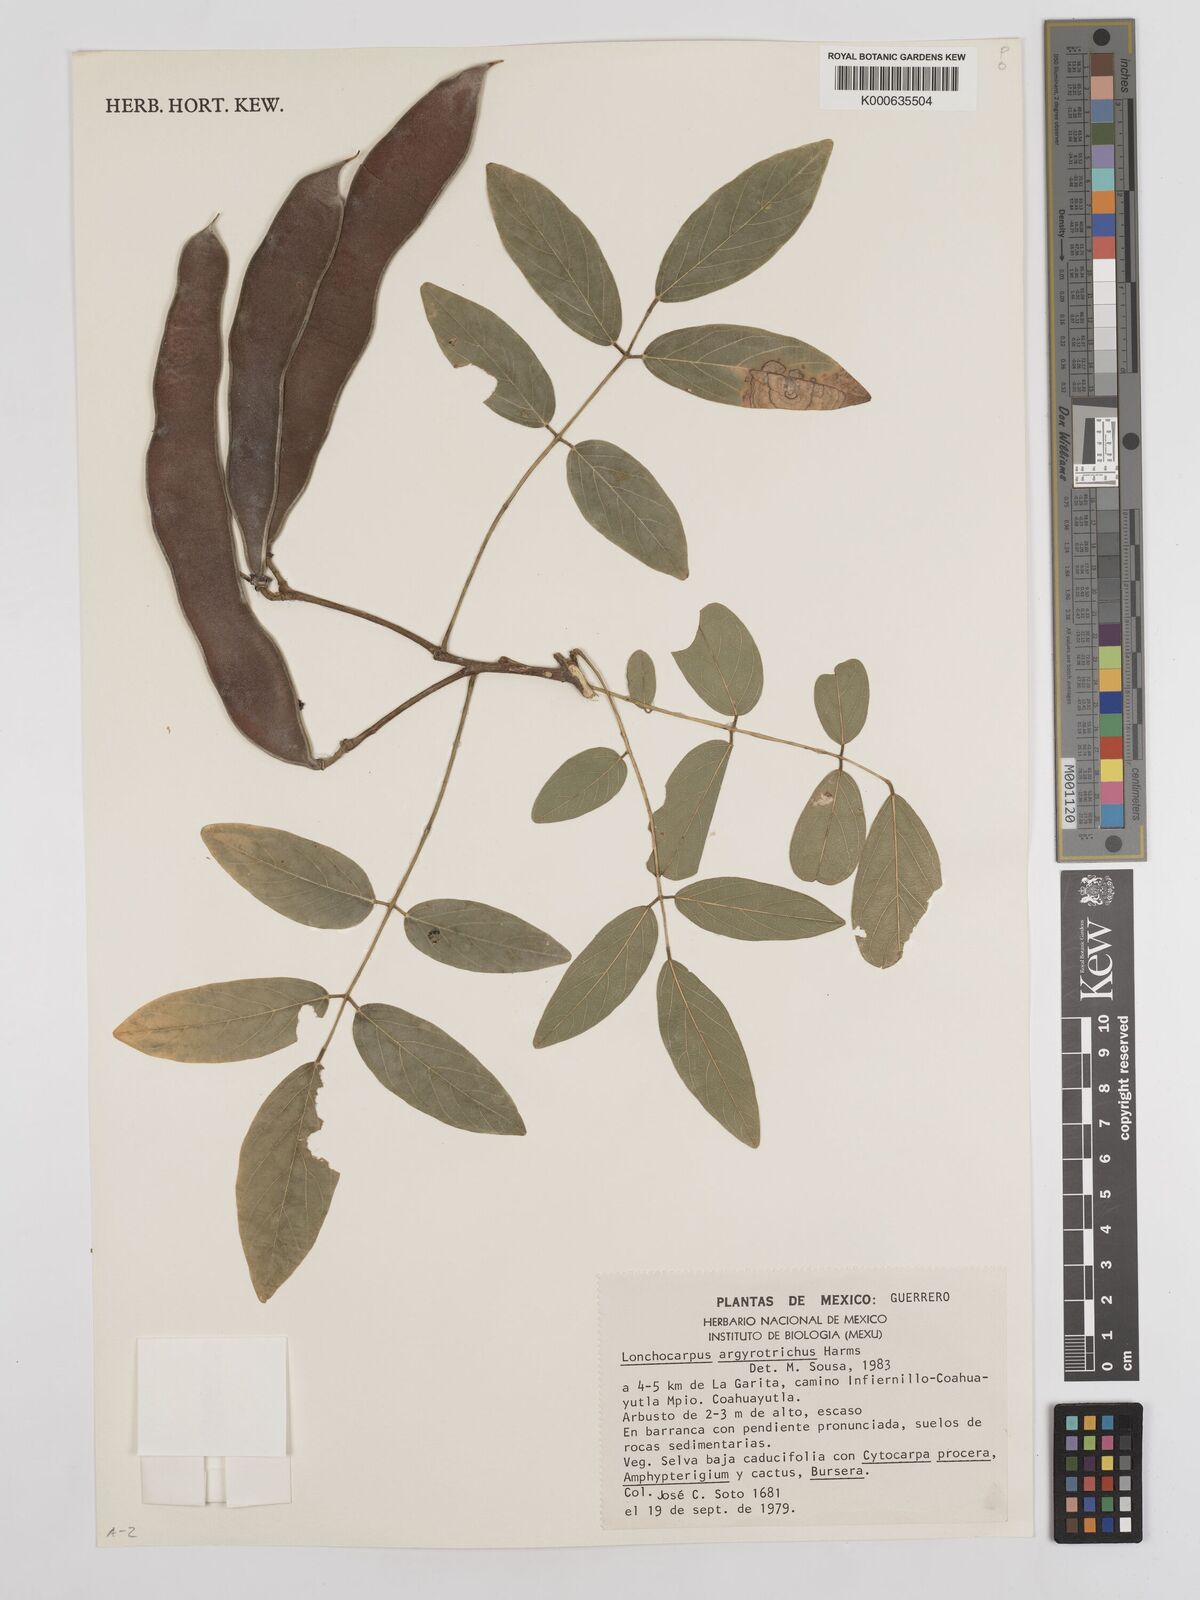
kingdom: Plantae
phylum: Tracheophyta
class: Magnoliopsida
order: Fabales
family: Fabaceae
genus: Lonchocarpus
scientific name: Lonchocarpus argyrotrichus
